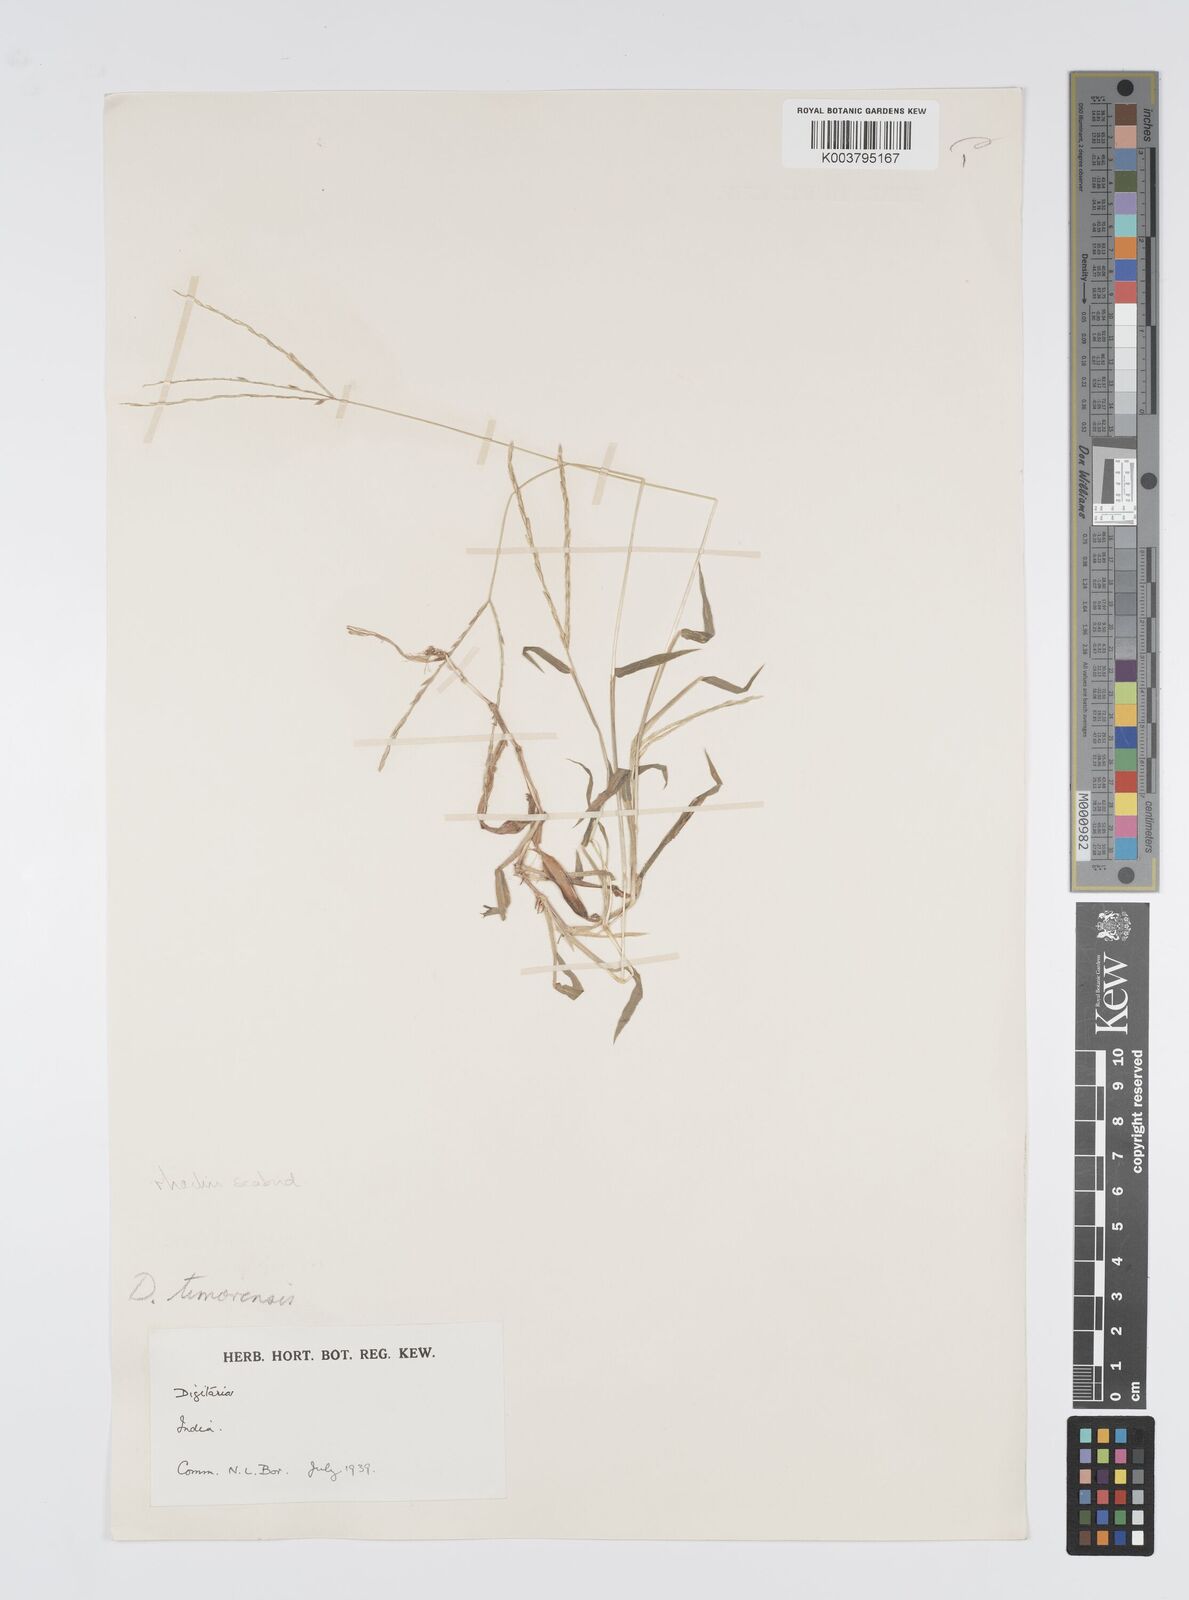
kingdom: Plantae
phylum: Tracheophyta
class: Liliopsida
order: Poales
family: Poaceae
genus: Digitaria
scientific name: Digitaria ciliaris
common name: Tropical finger-grass
